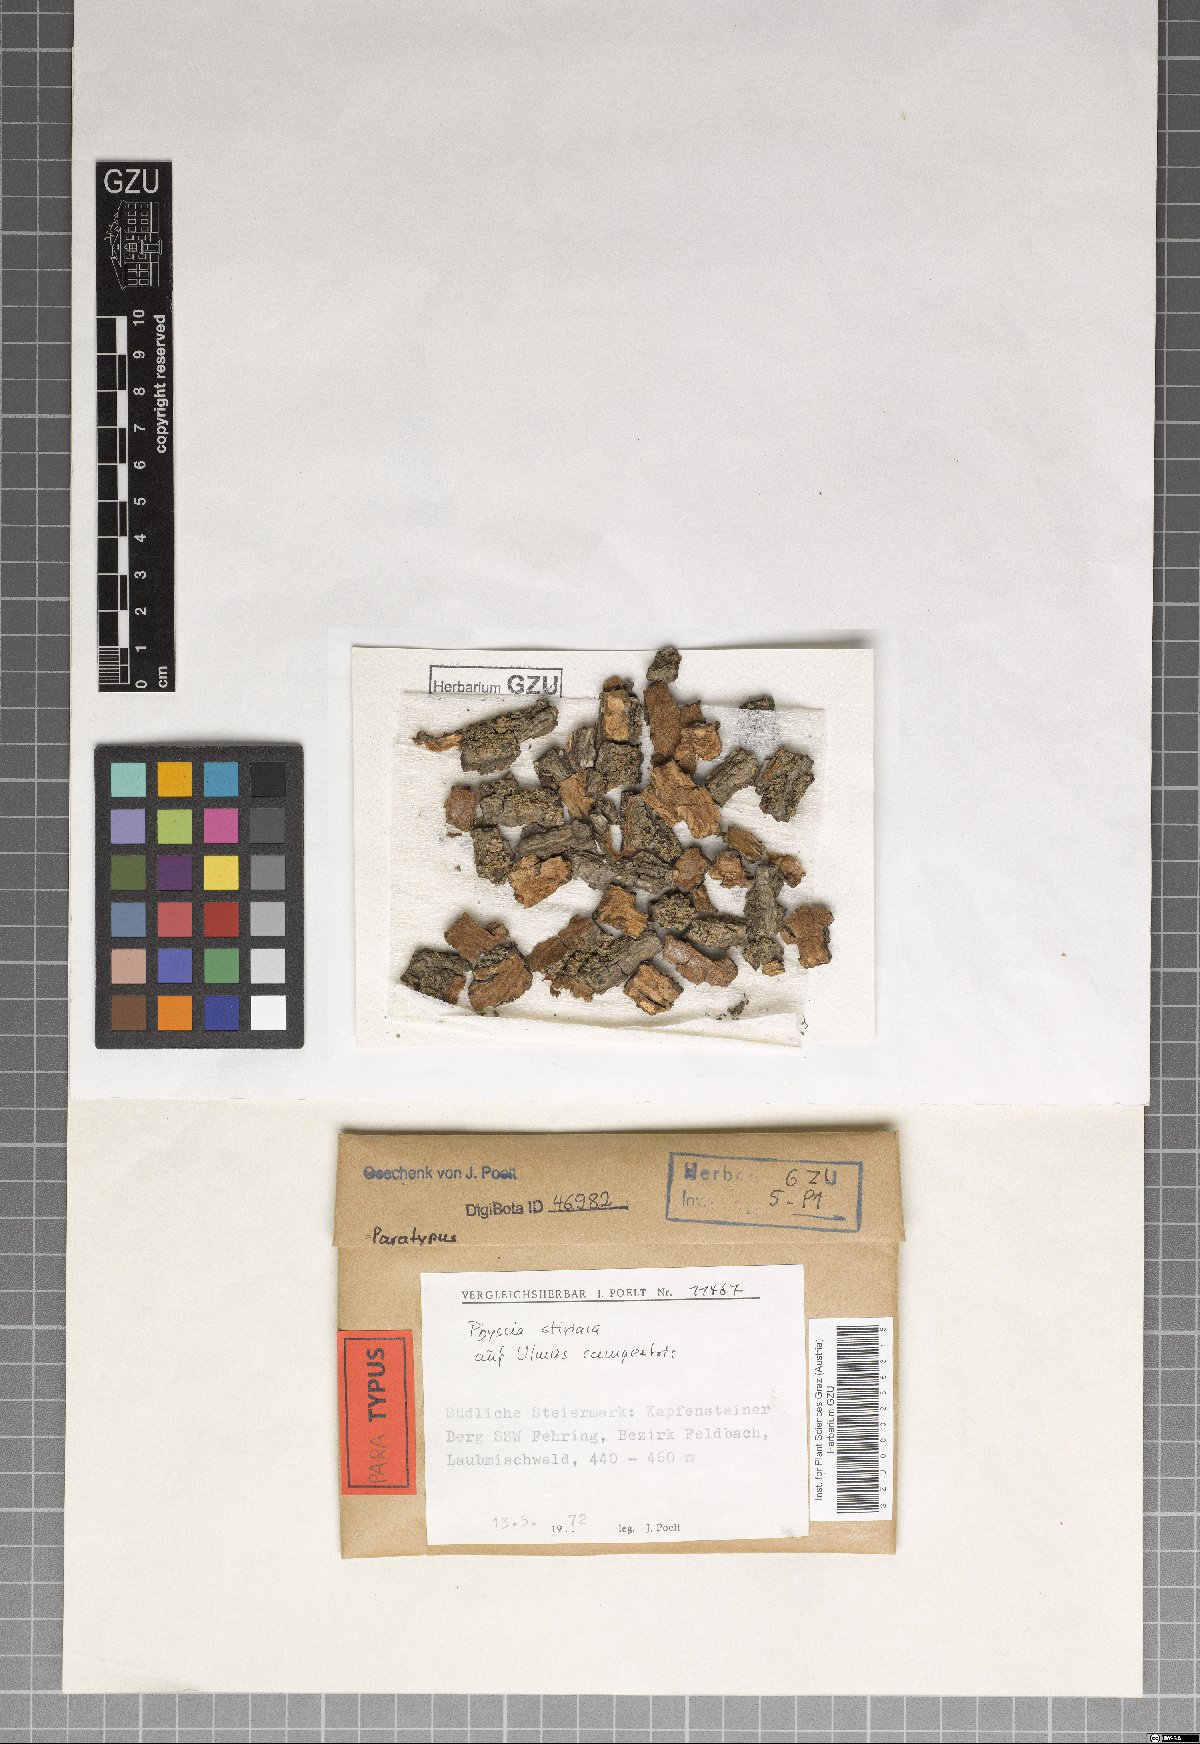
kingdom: Fungi
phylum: Ascomycota
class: Lecanoromycetes
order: Caliciales
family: Physciaceae
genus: Phaeophyscia
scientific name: Phaeophyscia stiriaca
